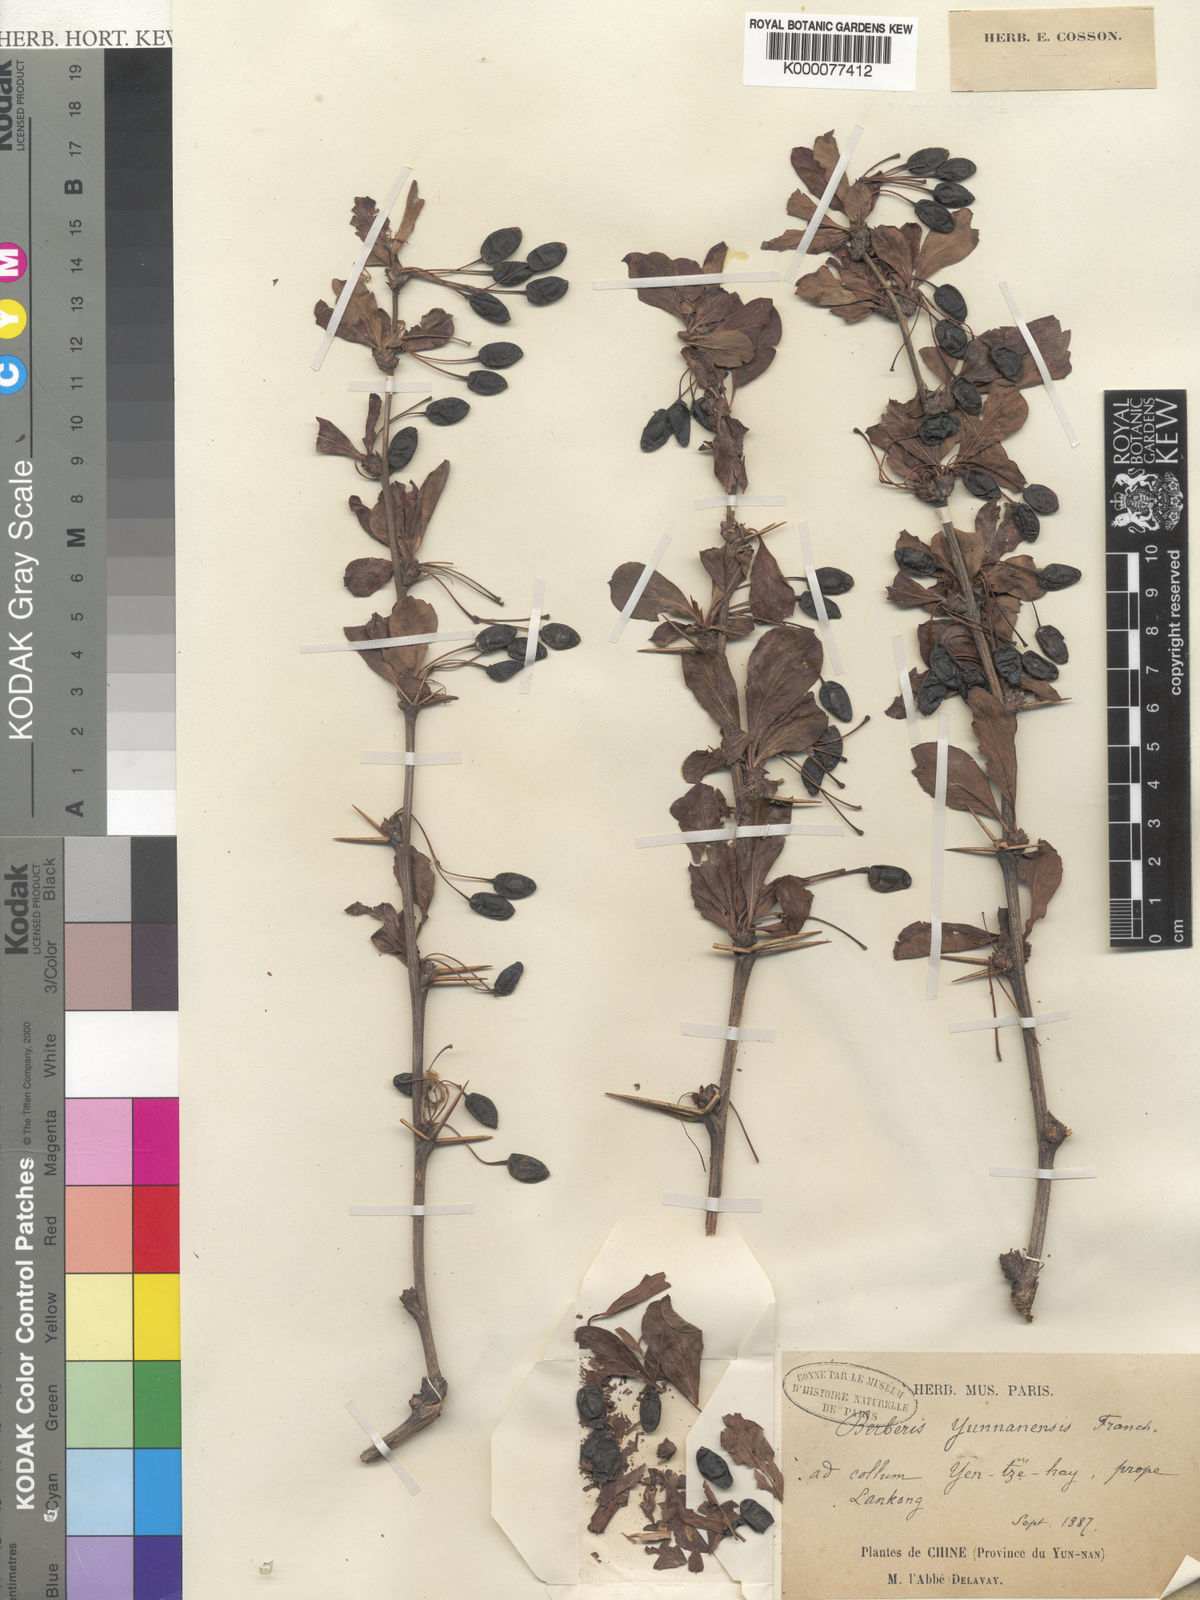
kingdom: Plantae
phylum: Tracheophyta
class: Magnoliopsida
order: Ranunculales
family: Berberidaceae
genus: Berberis
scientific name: Berberis yunnanensis
